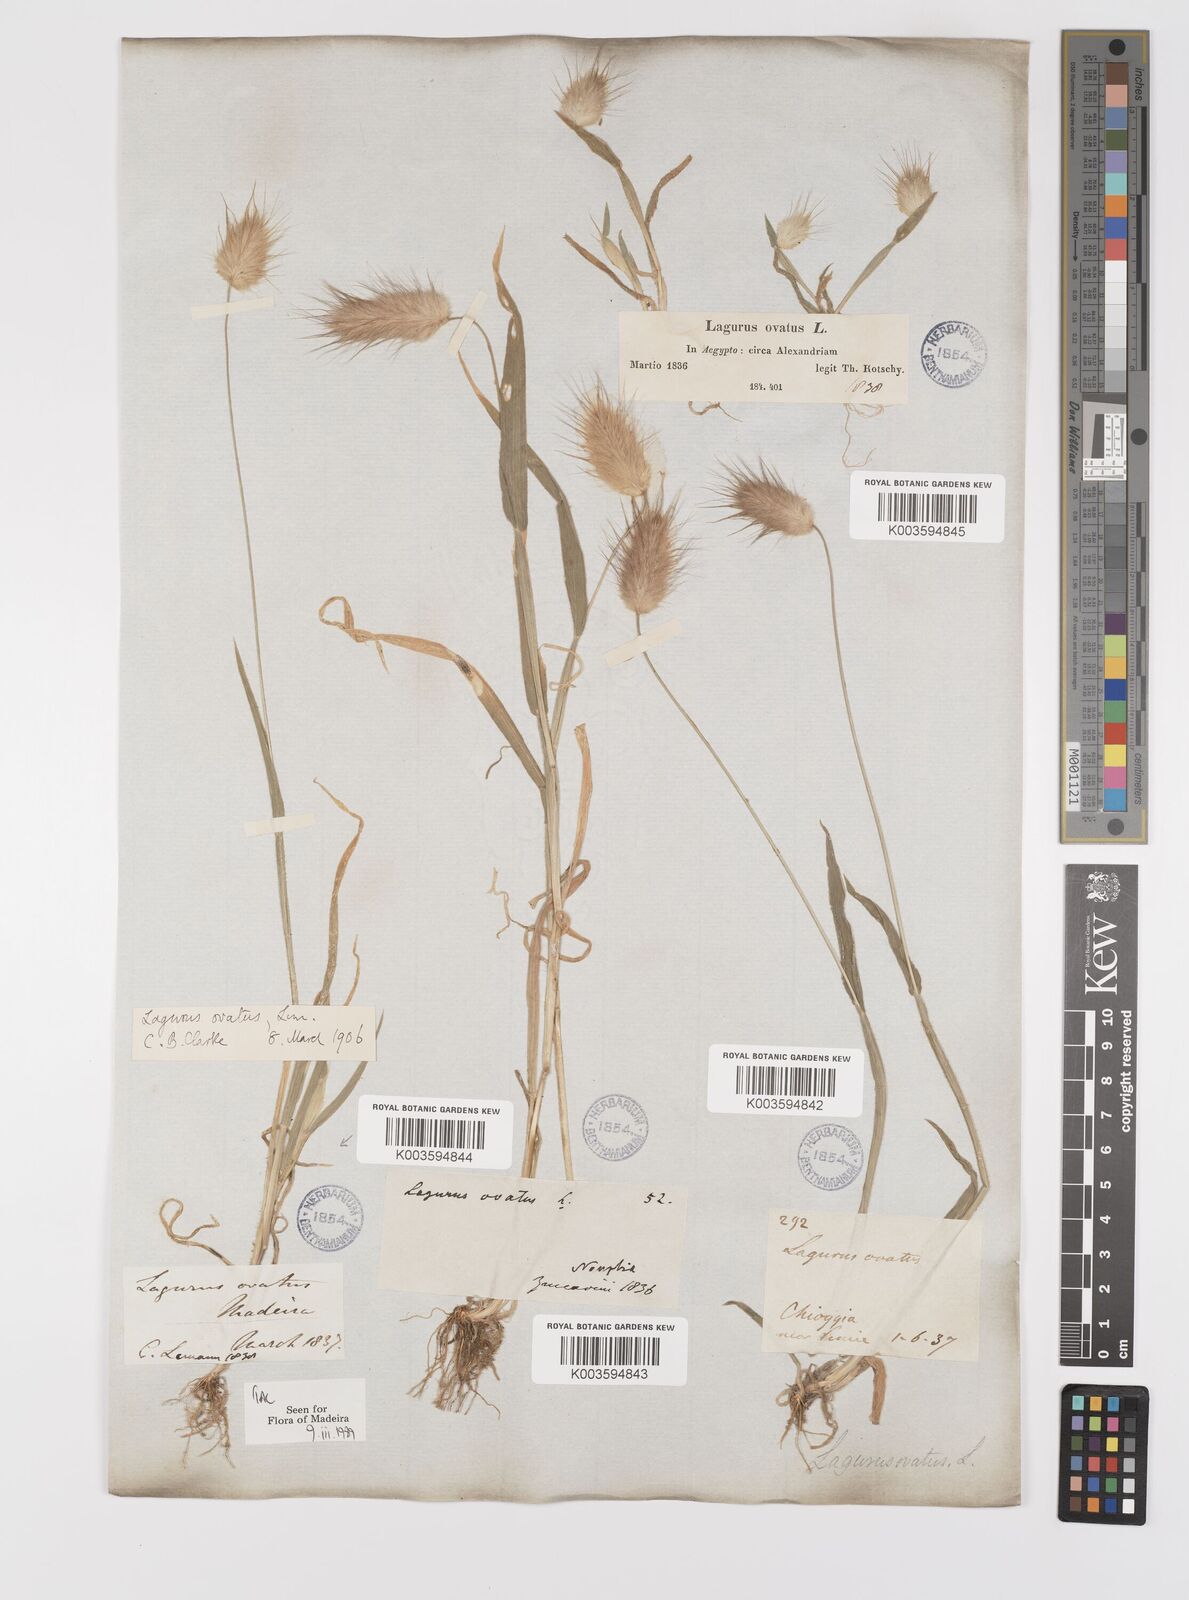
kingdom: Plantae
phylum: Tracheophyta
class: Liliopsida
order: Poales
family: Poaceae
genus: Lagurus
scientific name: Lagurus ovatus
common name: Hare's-tail
